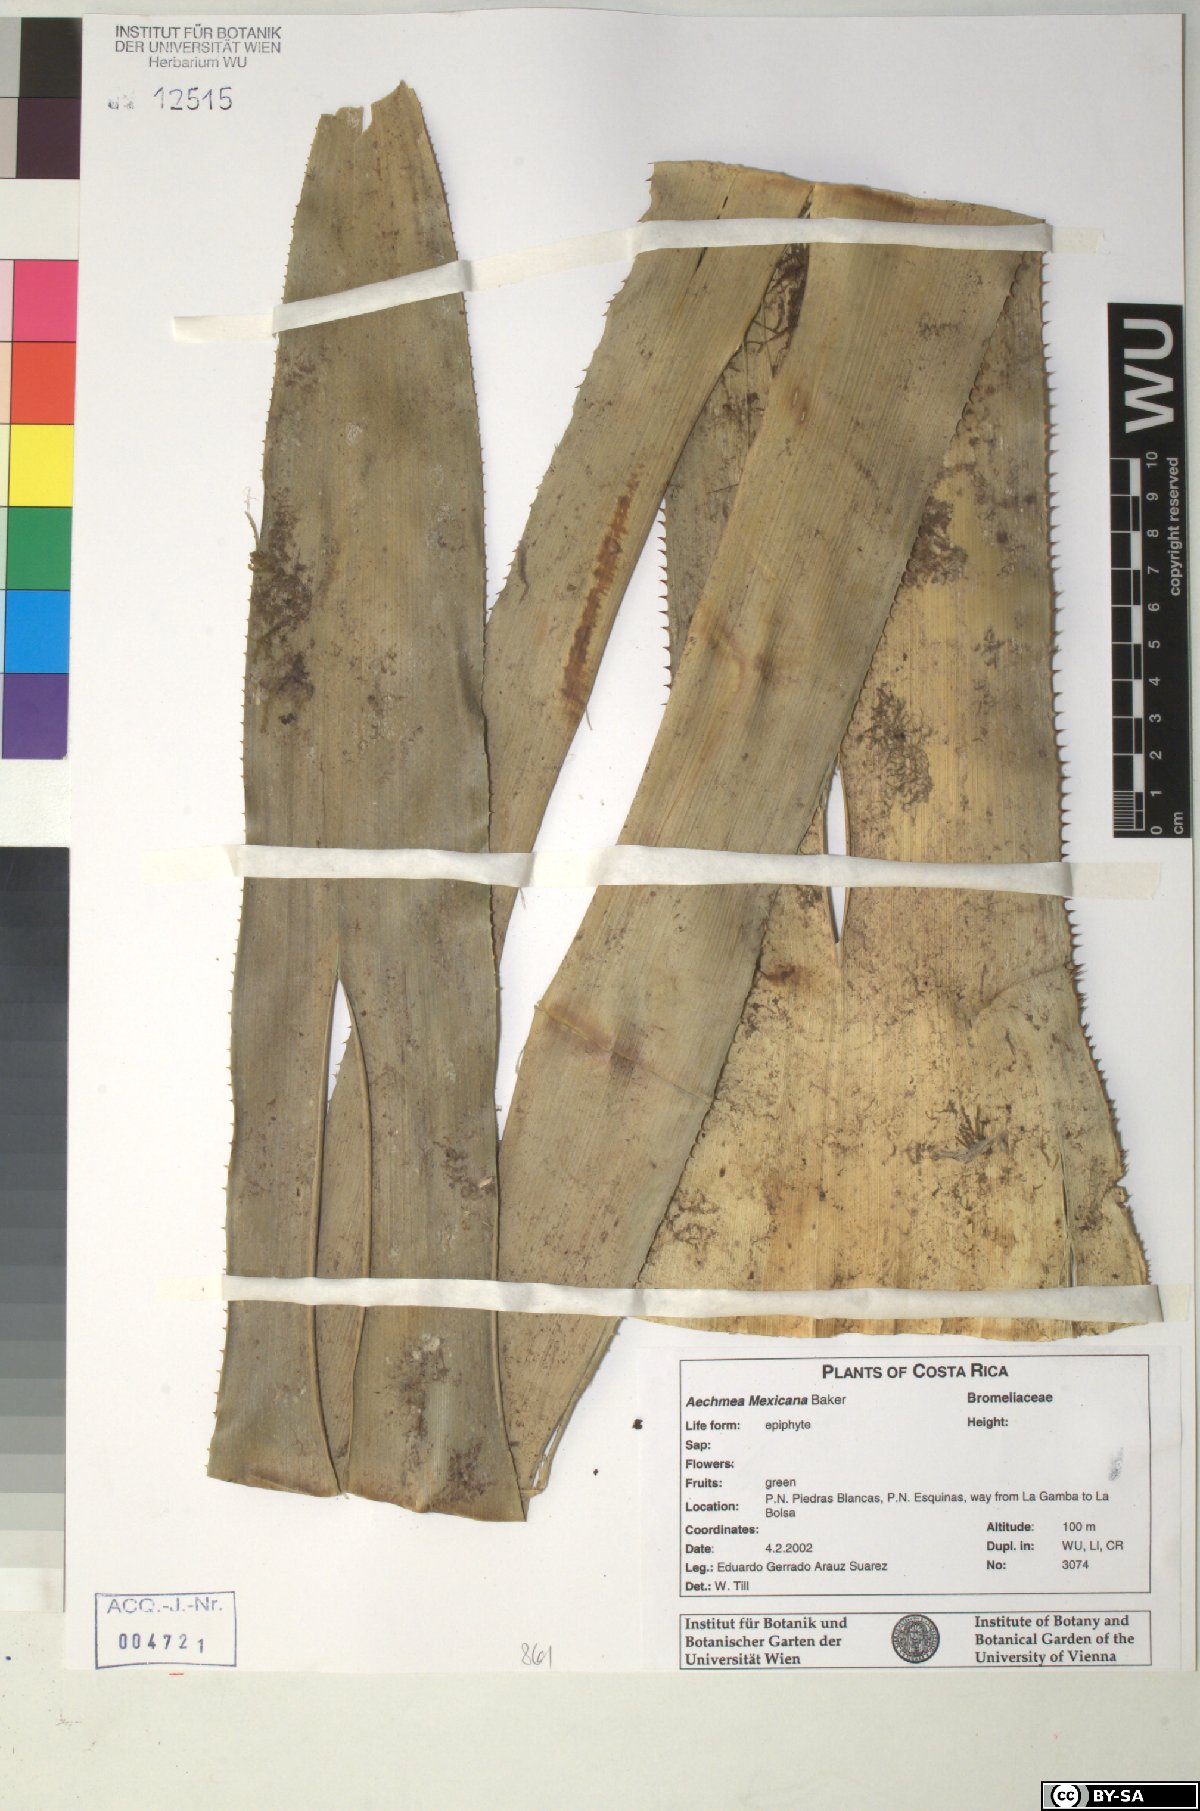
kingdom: Plantae
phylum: Tracheophyta
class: Liliopsida
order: Poales
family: Bromeliaceae
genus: Aechmea
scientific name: Aechmea mexicana
